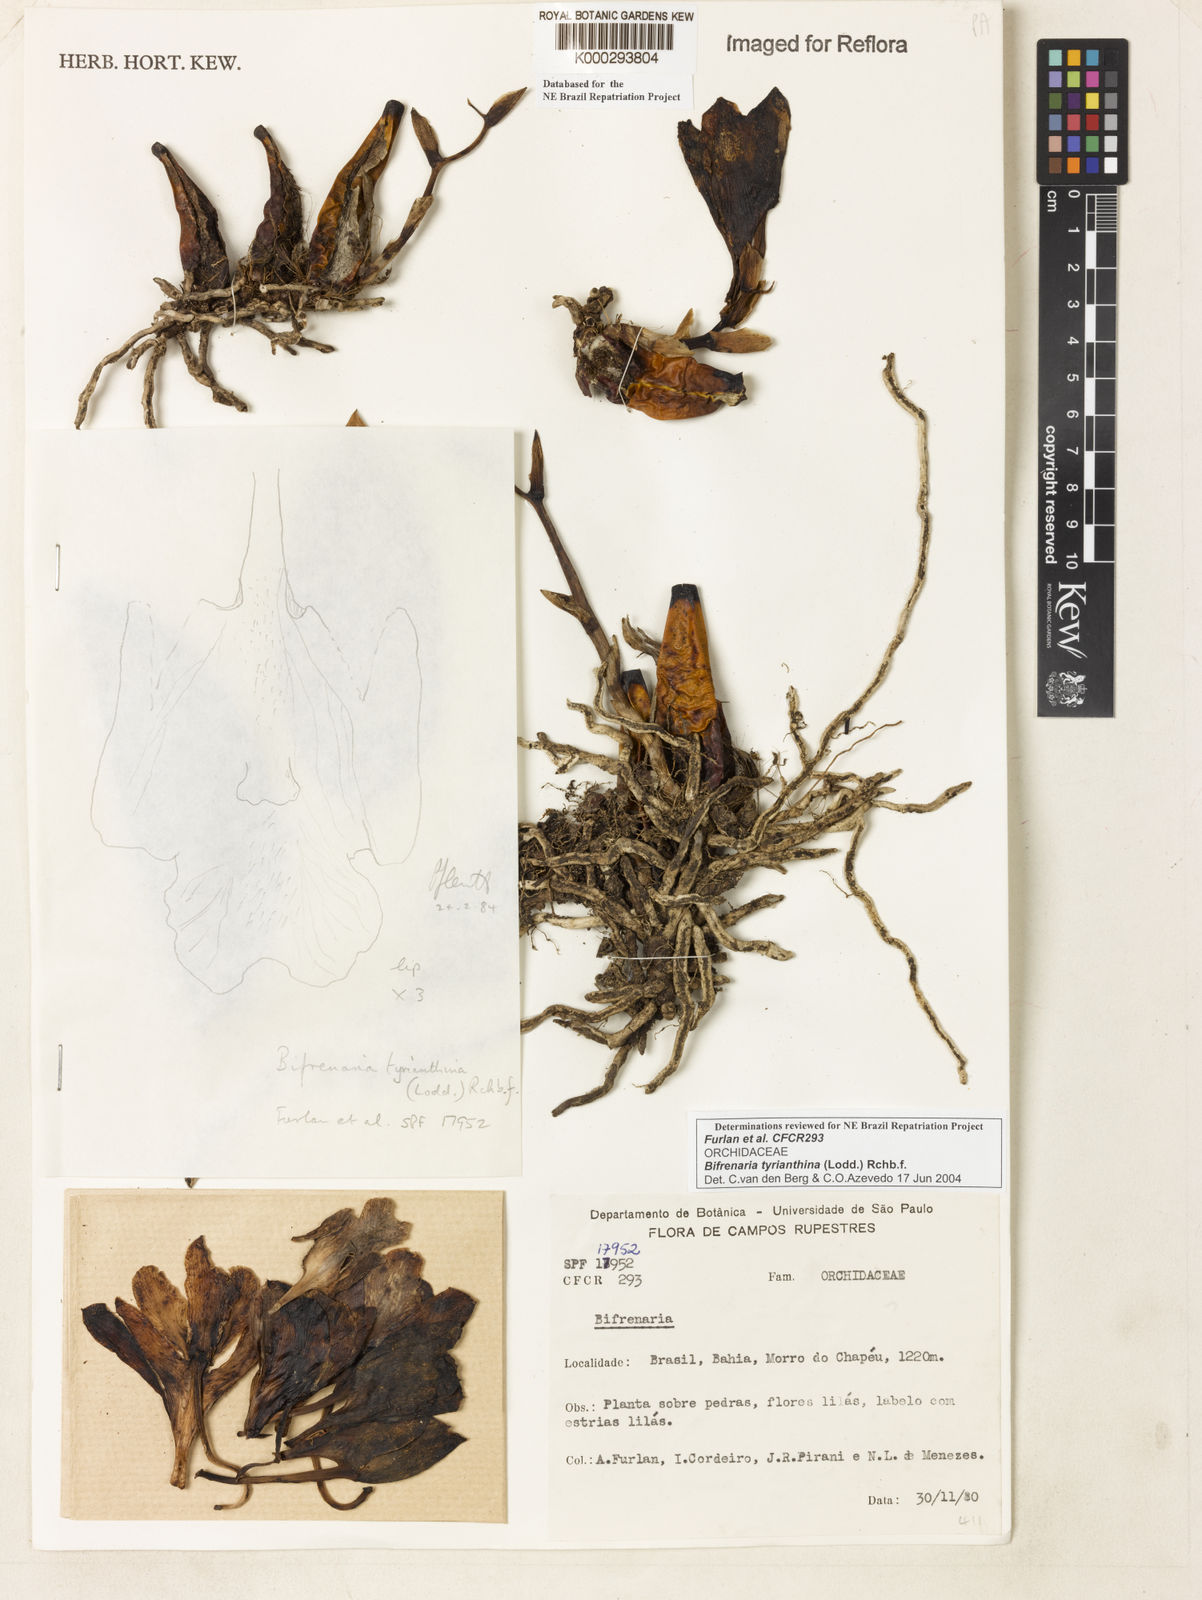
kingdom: Plantae
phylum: Tracheophyta
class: Liliopsida
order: Asparagales
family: Orchidaceae
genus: Bifrenaria
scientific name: Bifrenaria tyrianthina
